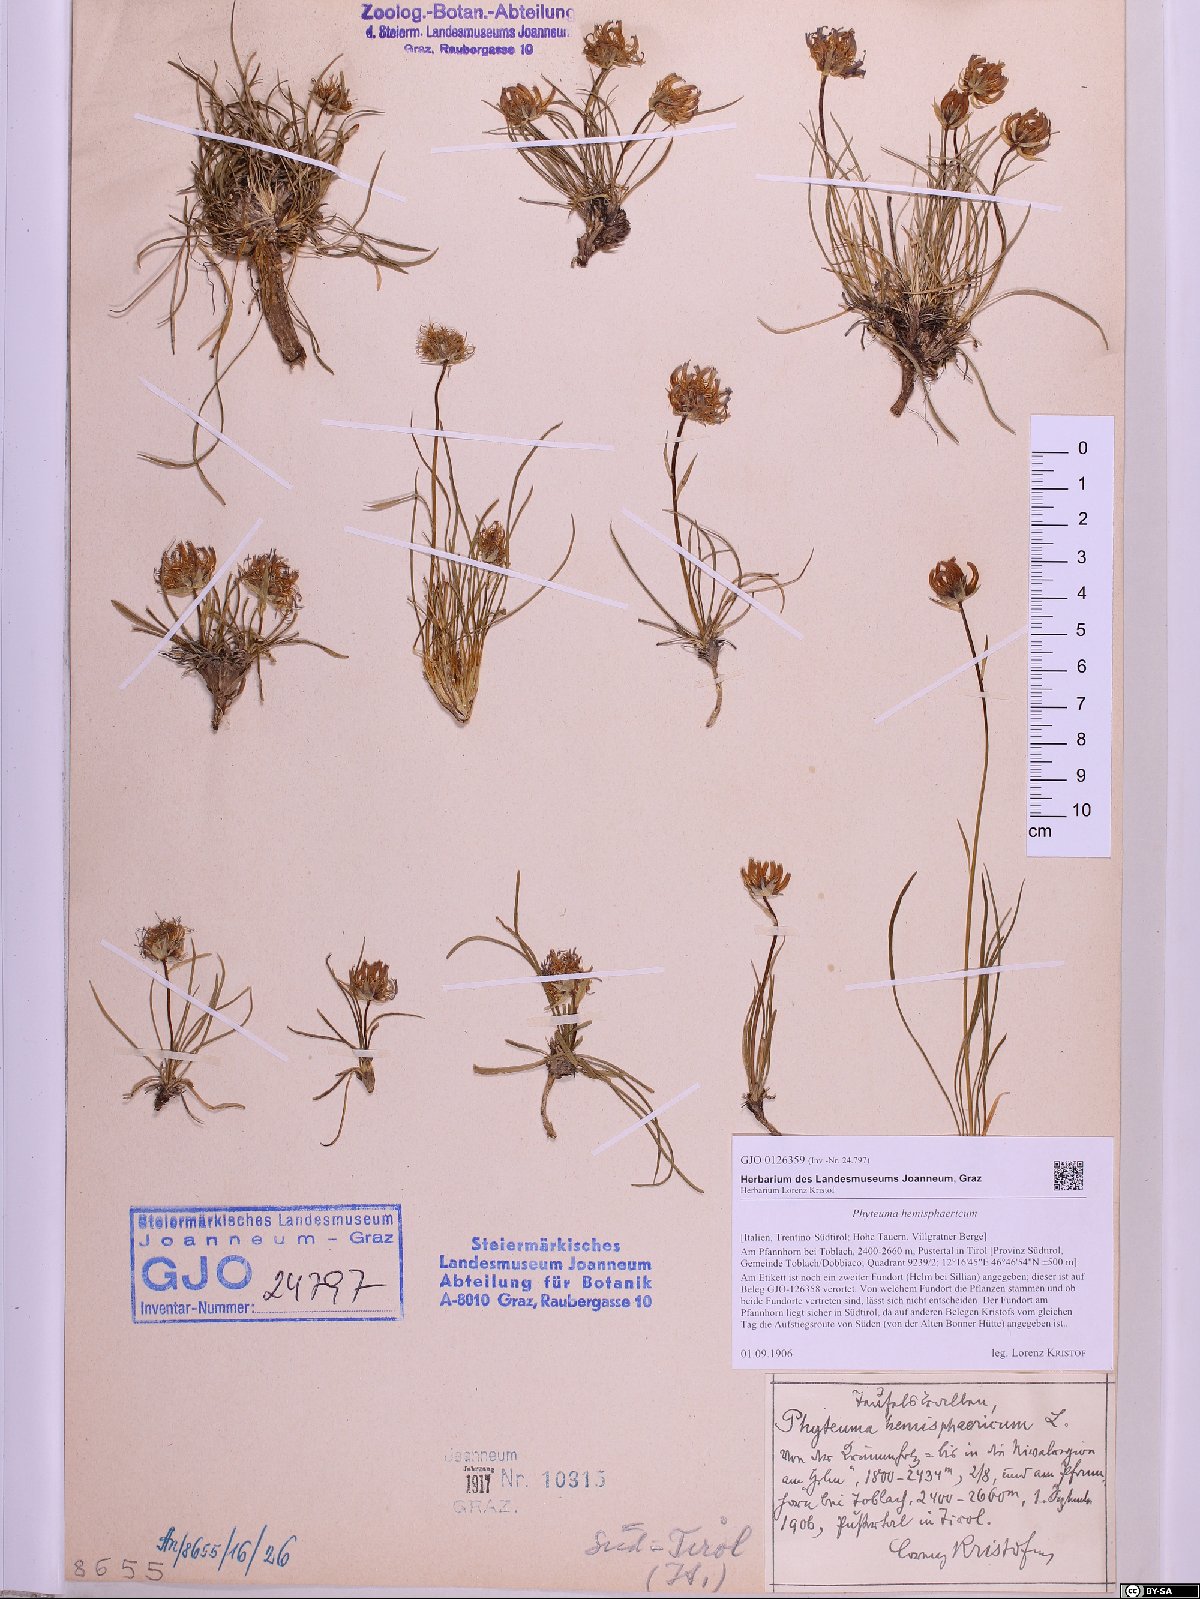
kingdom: Plantae
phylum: Tracheophyta
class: Magnoliopsida
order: Asterales
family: Campanulaceae
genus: Phyteuma
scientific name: Phyteuma hemisphaericum
